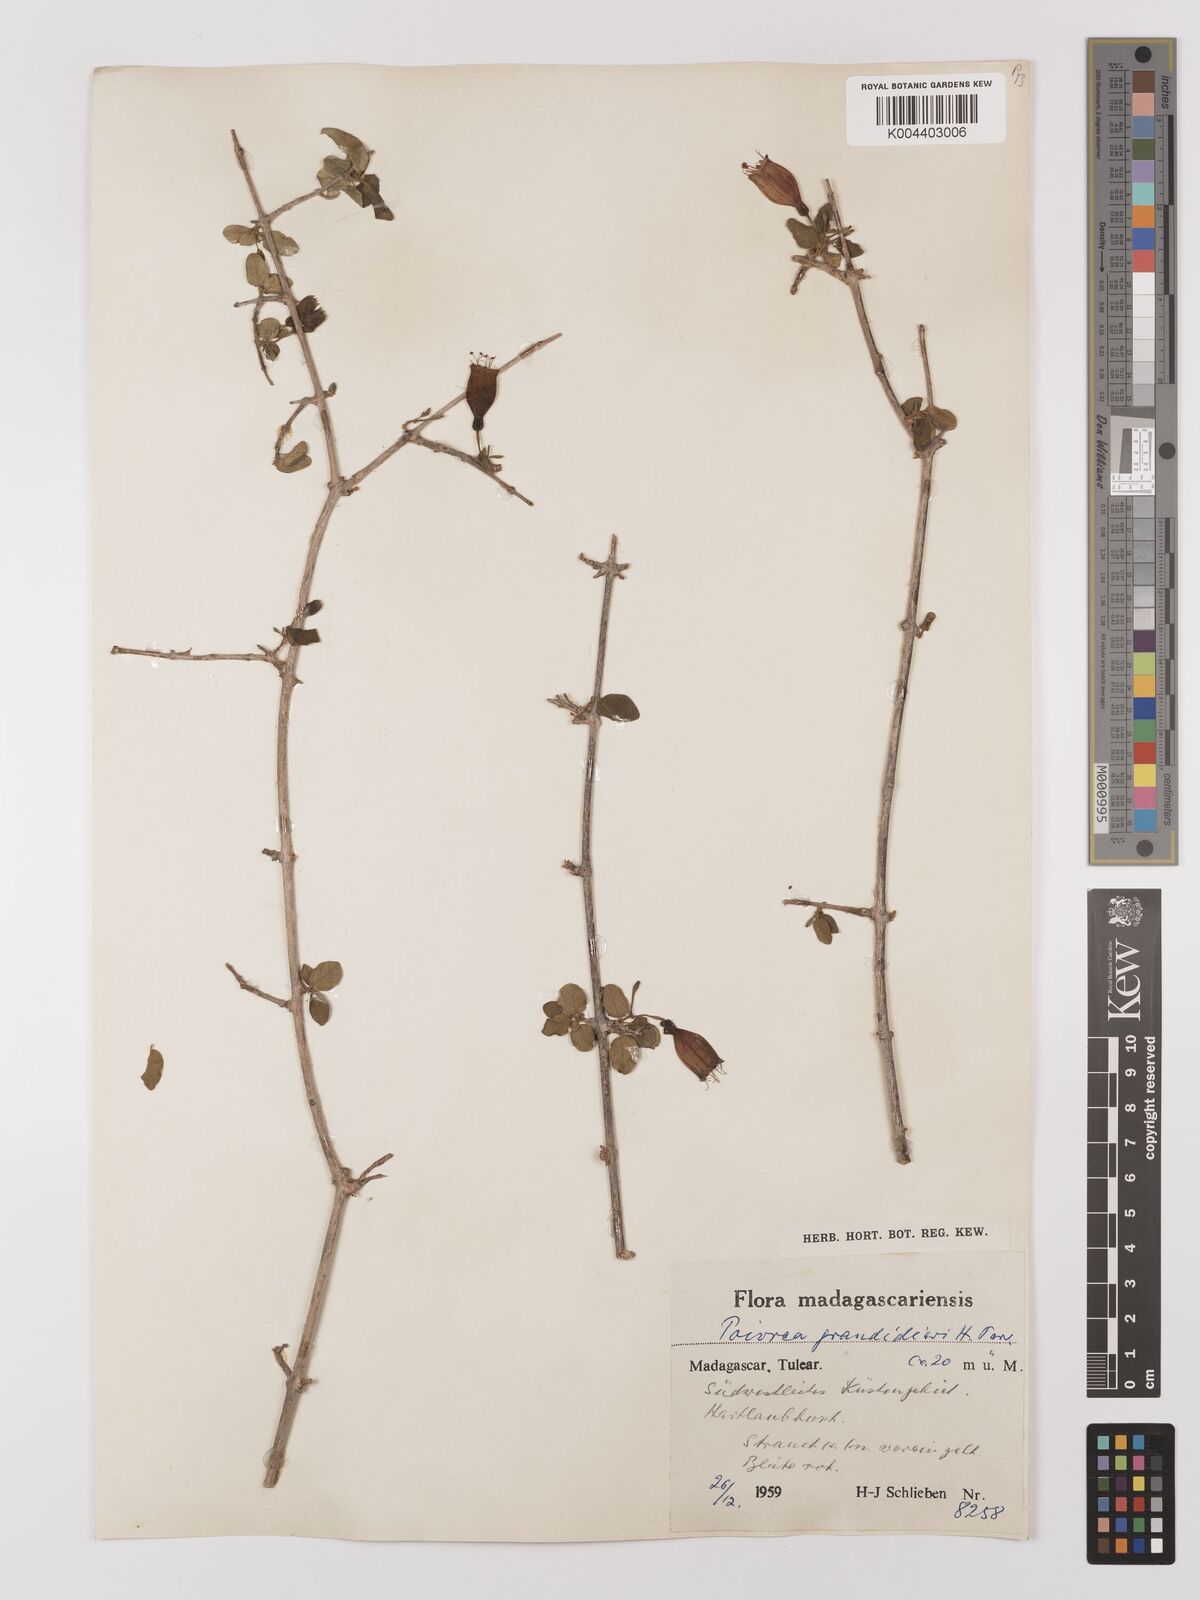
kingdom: Plantae
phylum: Tracheophyta
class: Magnoliopsida
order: Myrtales
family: Combretaceae
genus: Combretum
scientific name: Combretum grandidieri
